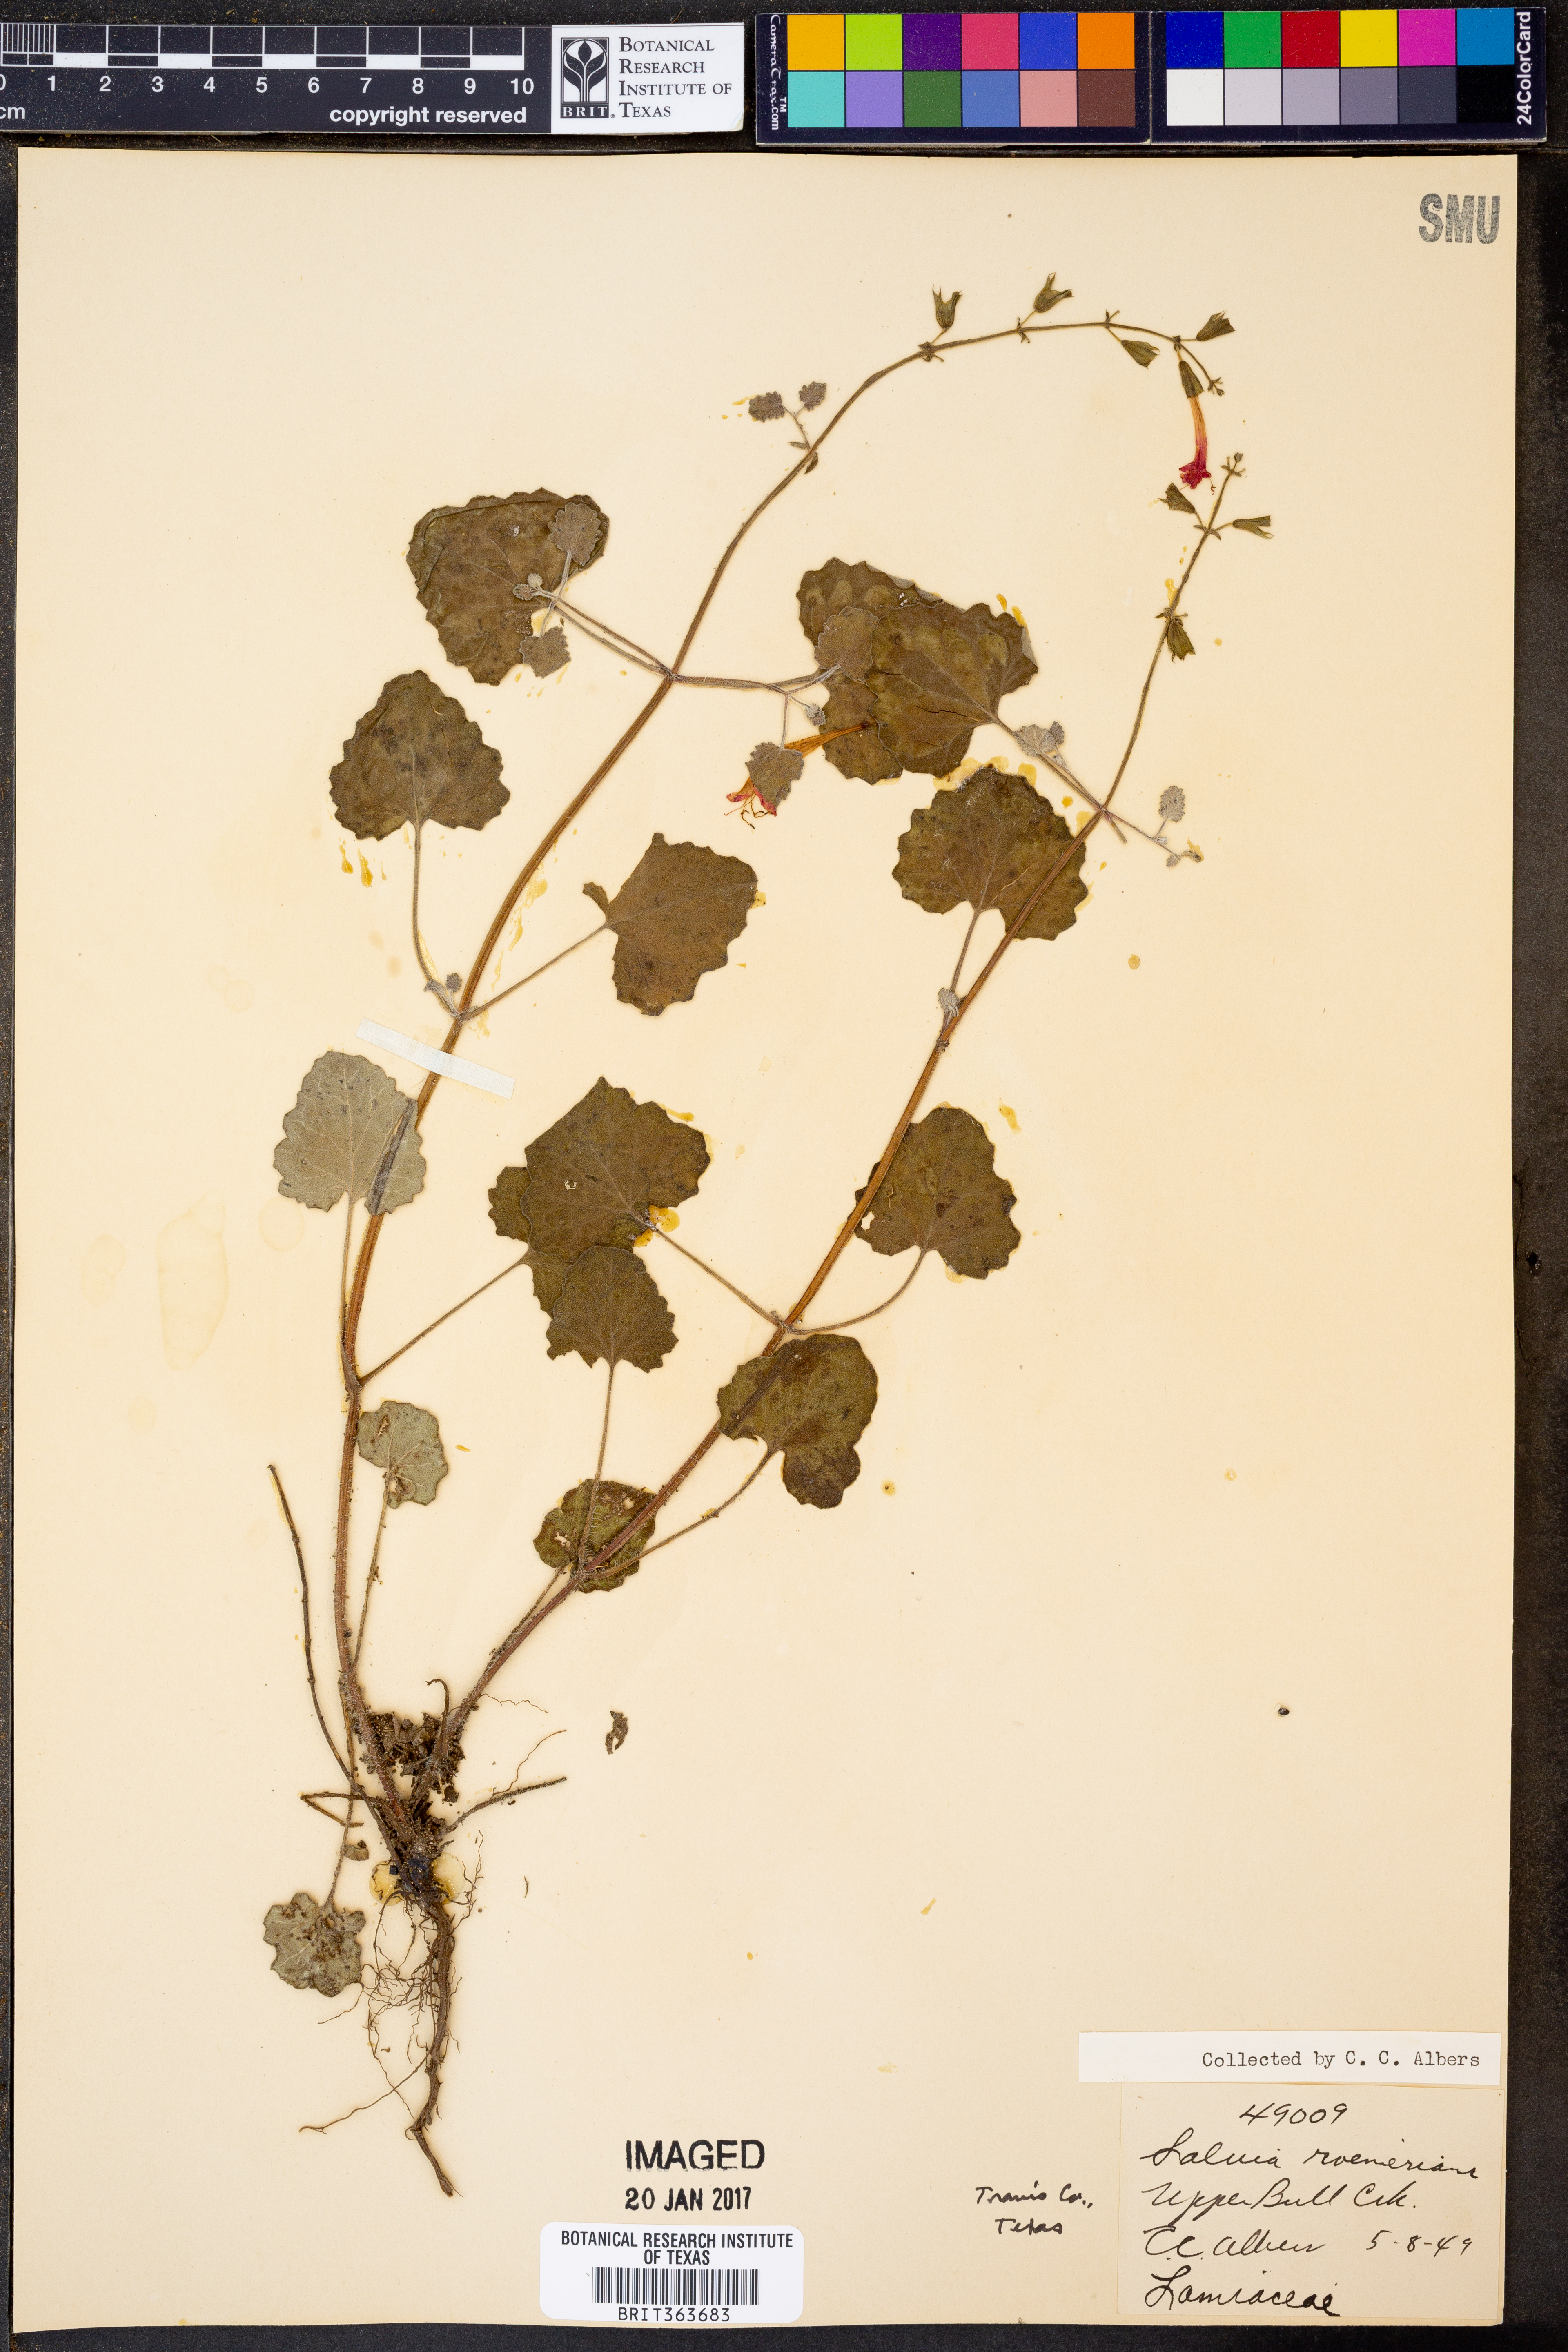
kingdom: Plantae
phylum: Tracheophyta
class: Magnoliopsida
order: Lamiales
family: Lamiaceae
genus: Salvia
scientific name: Salvia roemeriana
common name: Cedar sage
